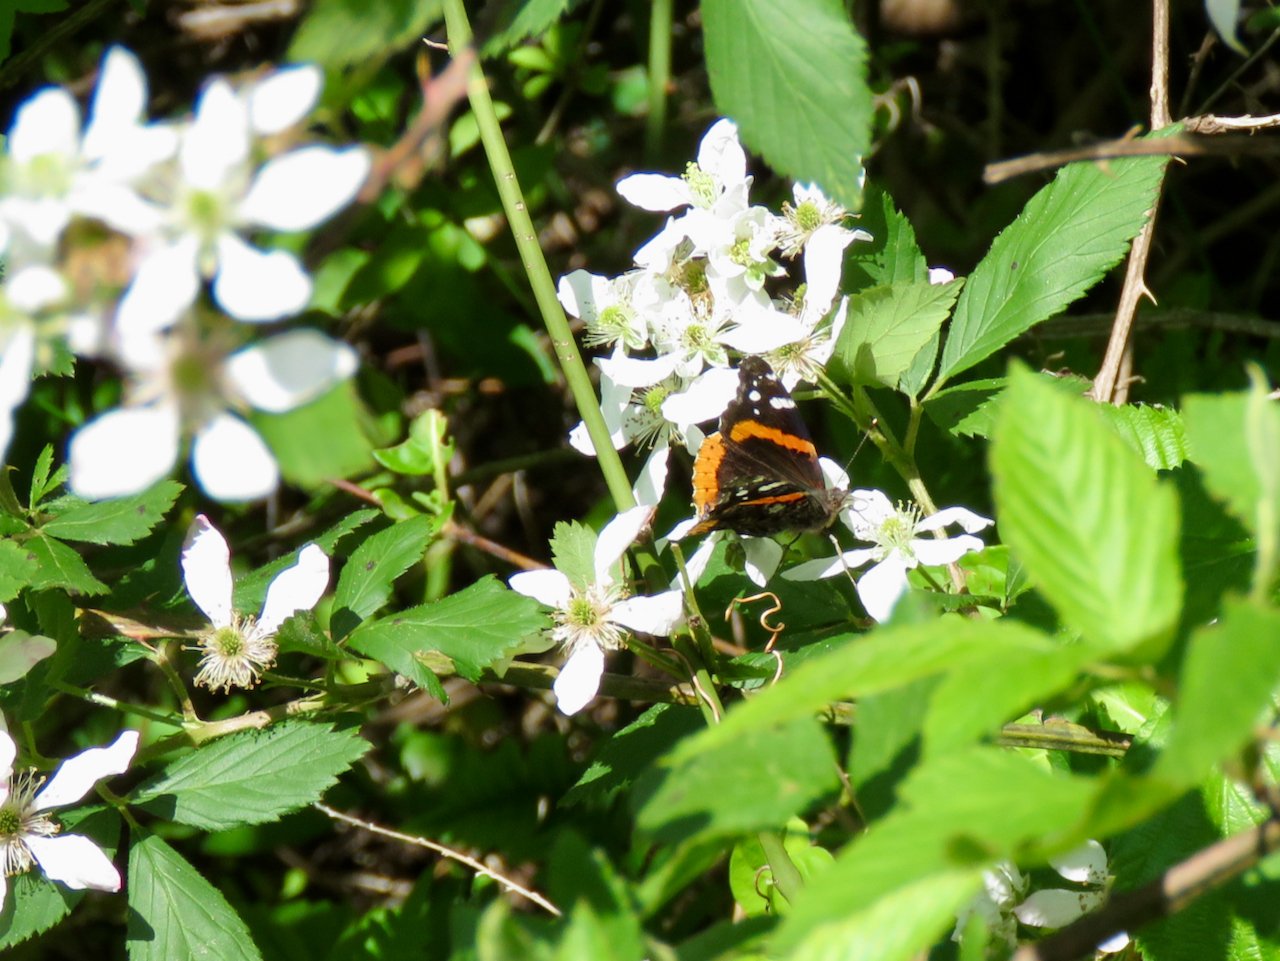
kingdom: Animalia
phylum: Arthropoda
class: Insecta
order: Lepidoptera
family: Nymphalidae
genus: Vanessa
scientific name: Vanessa atalanta
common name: Red Admiral
